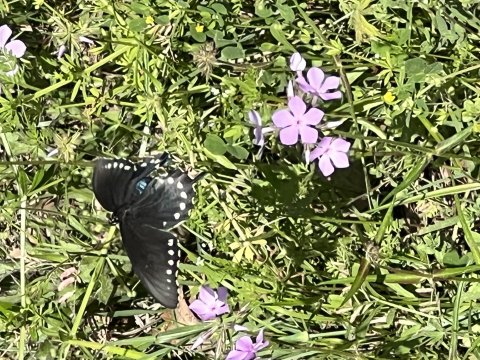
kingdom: Animalia
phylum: Arthropoda
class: Insecta
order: Lepidoptera
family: Papilionidae
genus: Battus
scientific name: Battus philenor
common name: Pipevine Swallowtail
